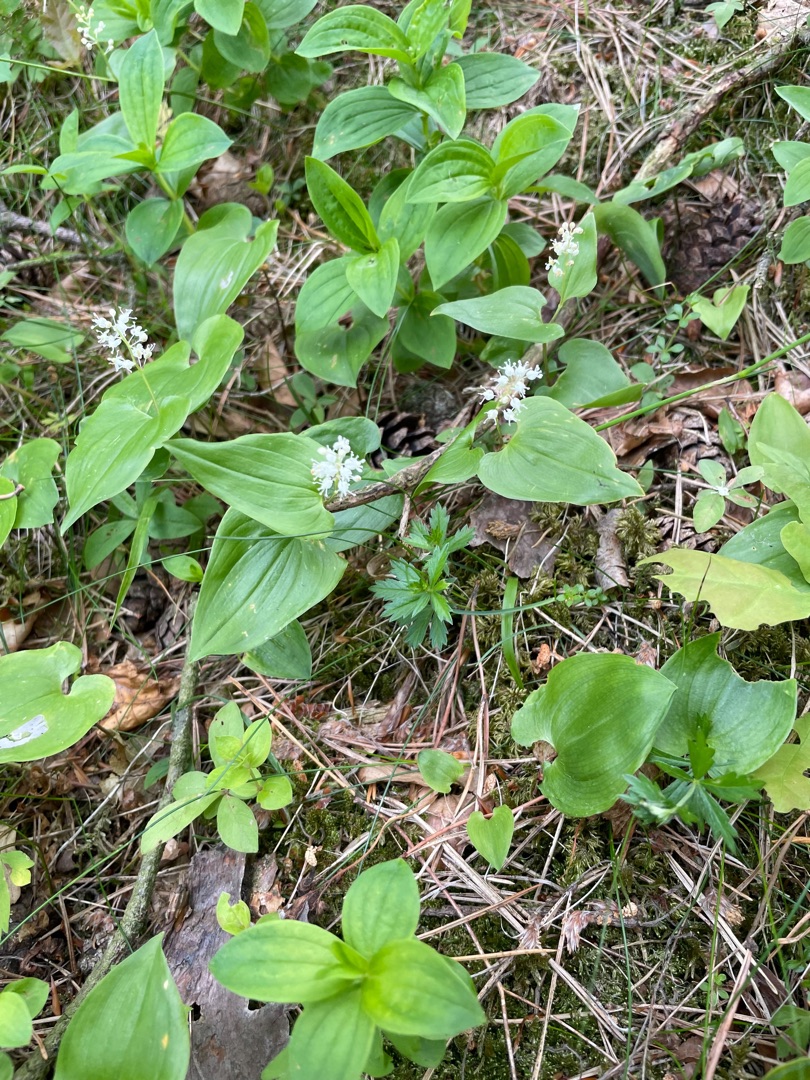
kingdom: Plantae
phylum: Tracheophyta
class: Liliopsida
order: Asparagales
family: Asparagaceae
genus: Maianthemum
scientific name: Maianthemum bifolium
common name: Majblomst
